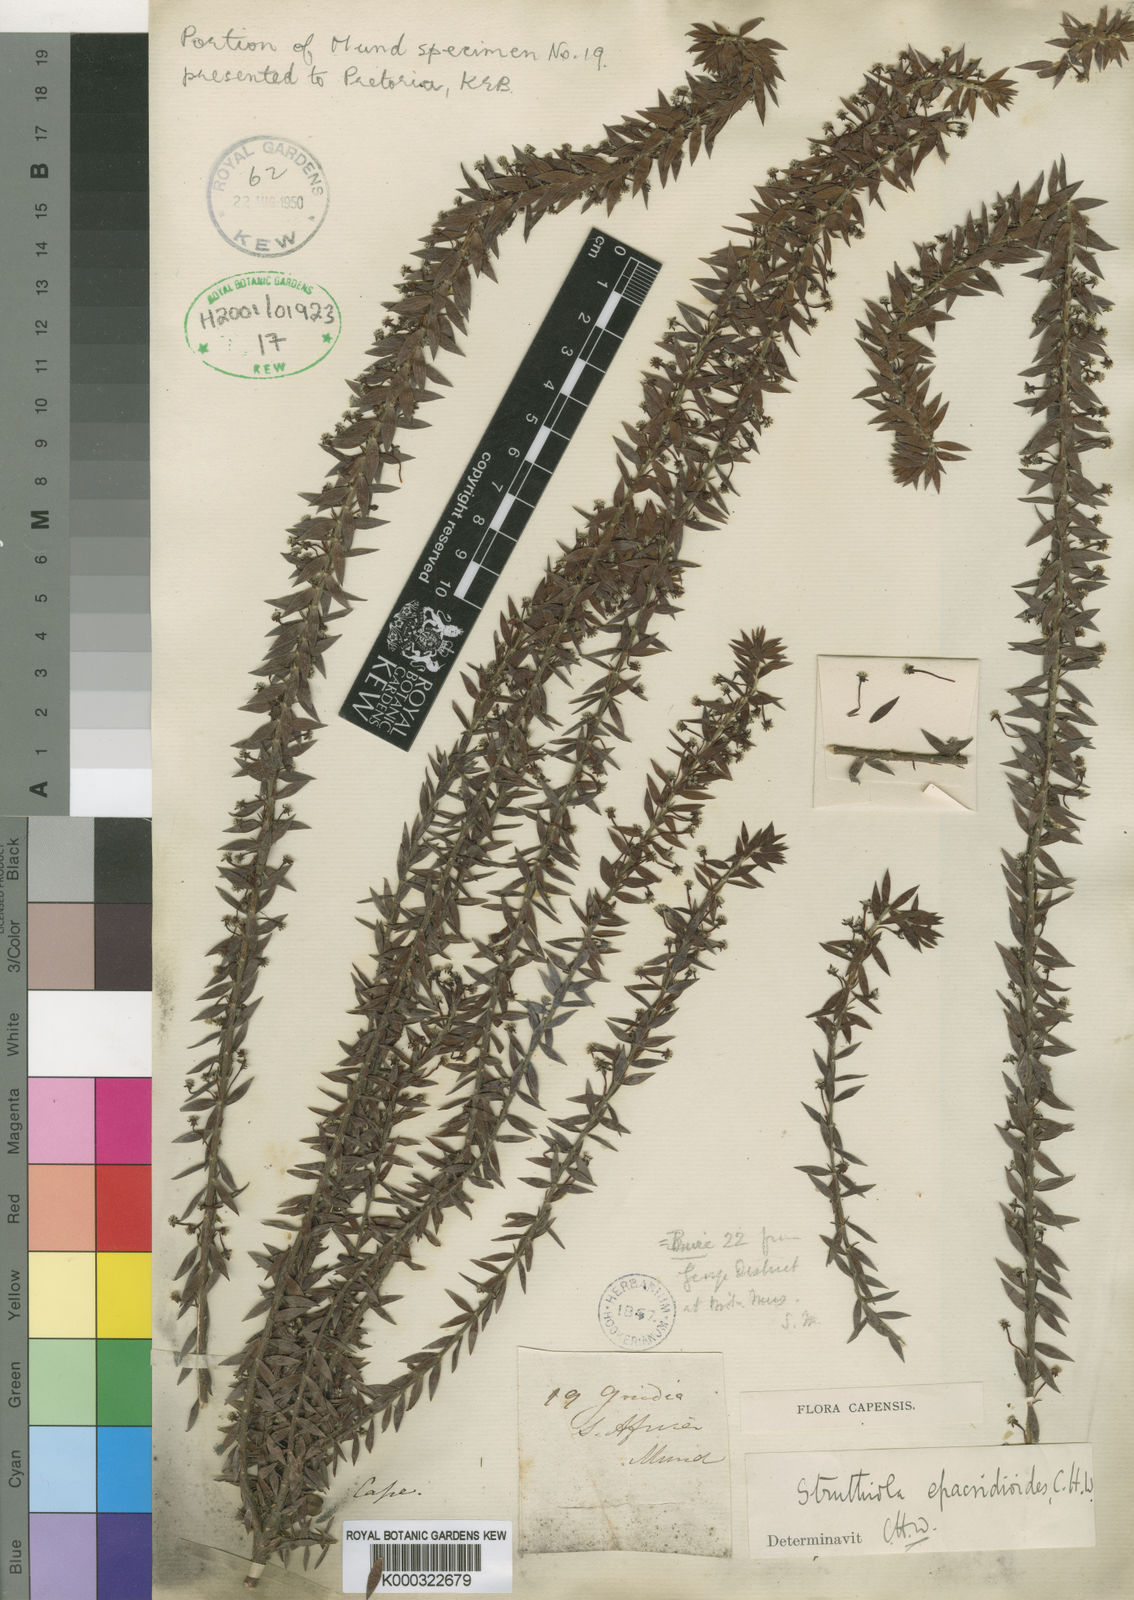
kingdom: Plantae
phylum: Tracheophyta
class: Magnoliopsida
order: Malvales
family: Thymelaeaceae
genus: Struthiola
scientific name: Struthiola hirsuta
